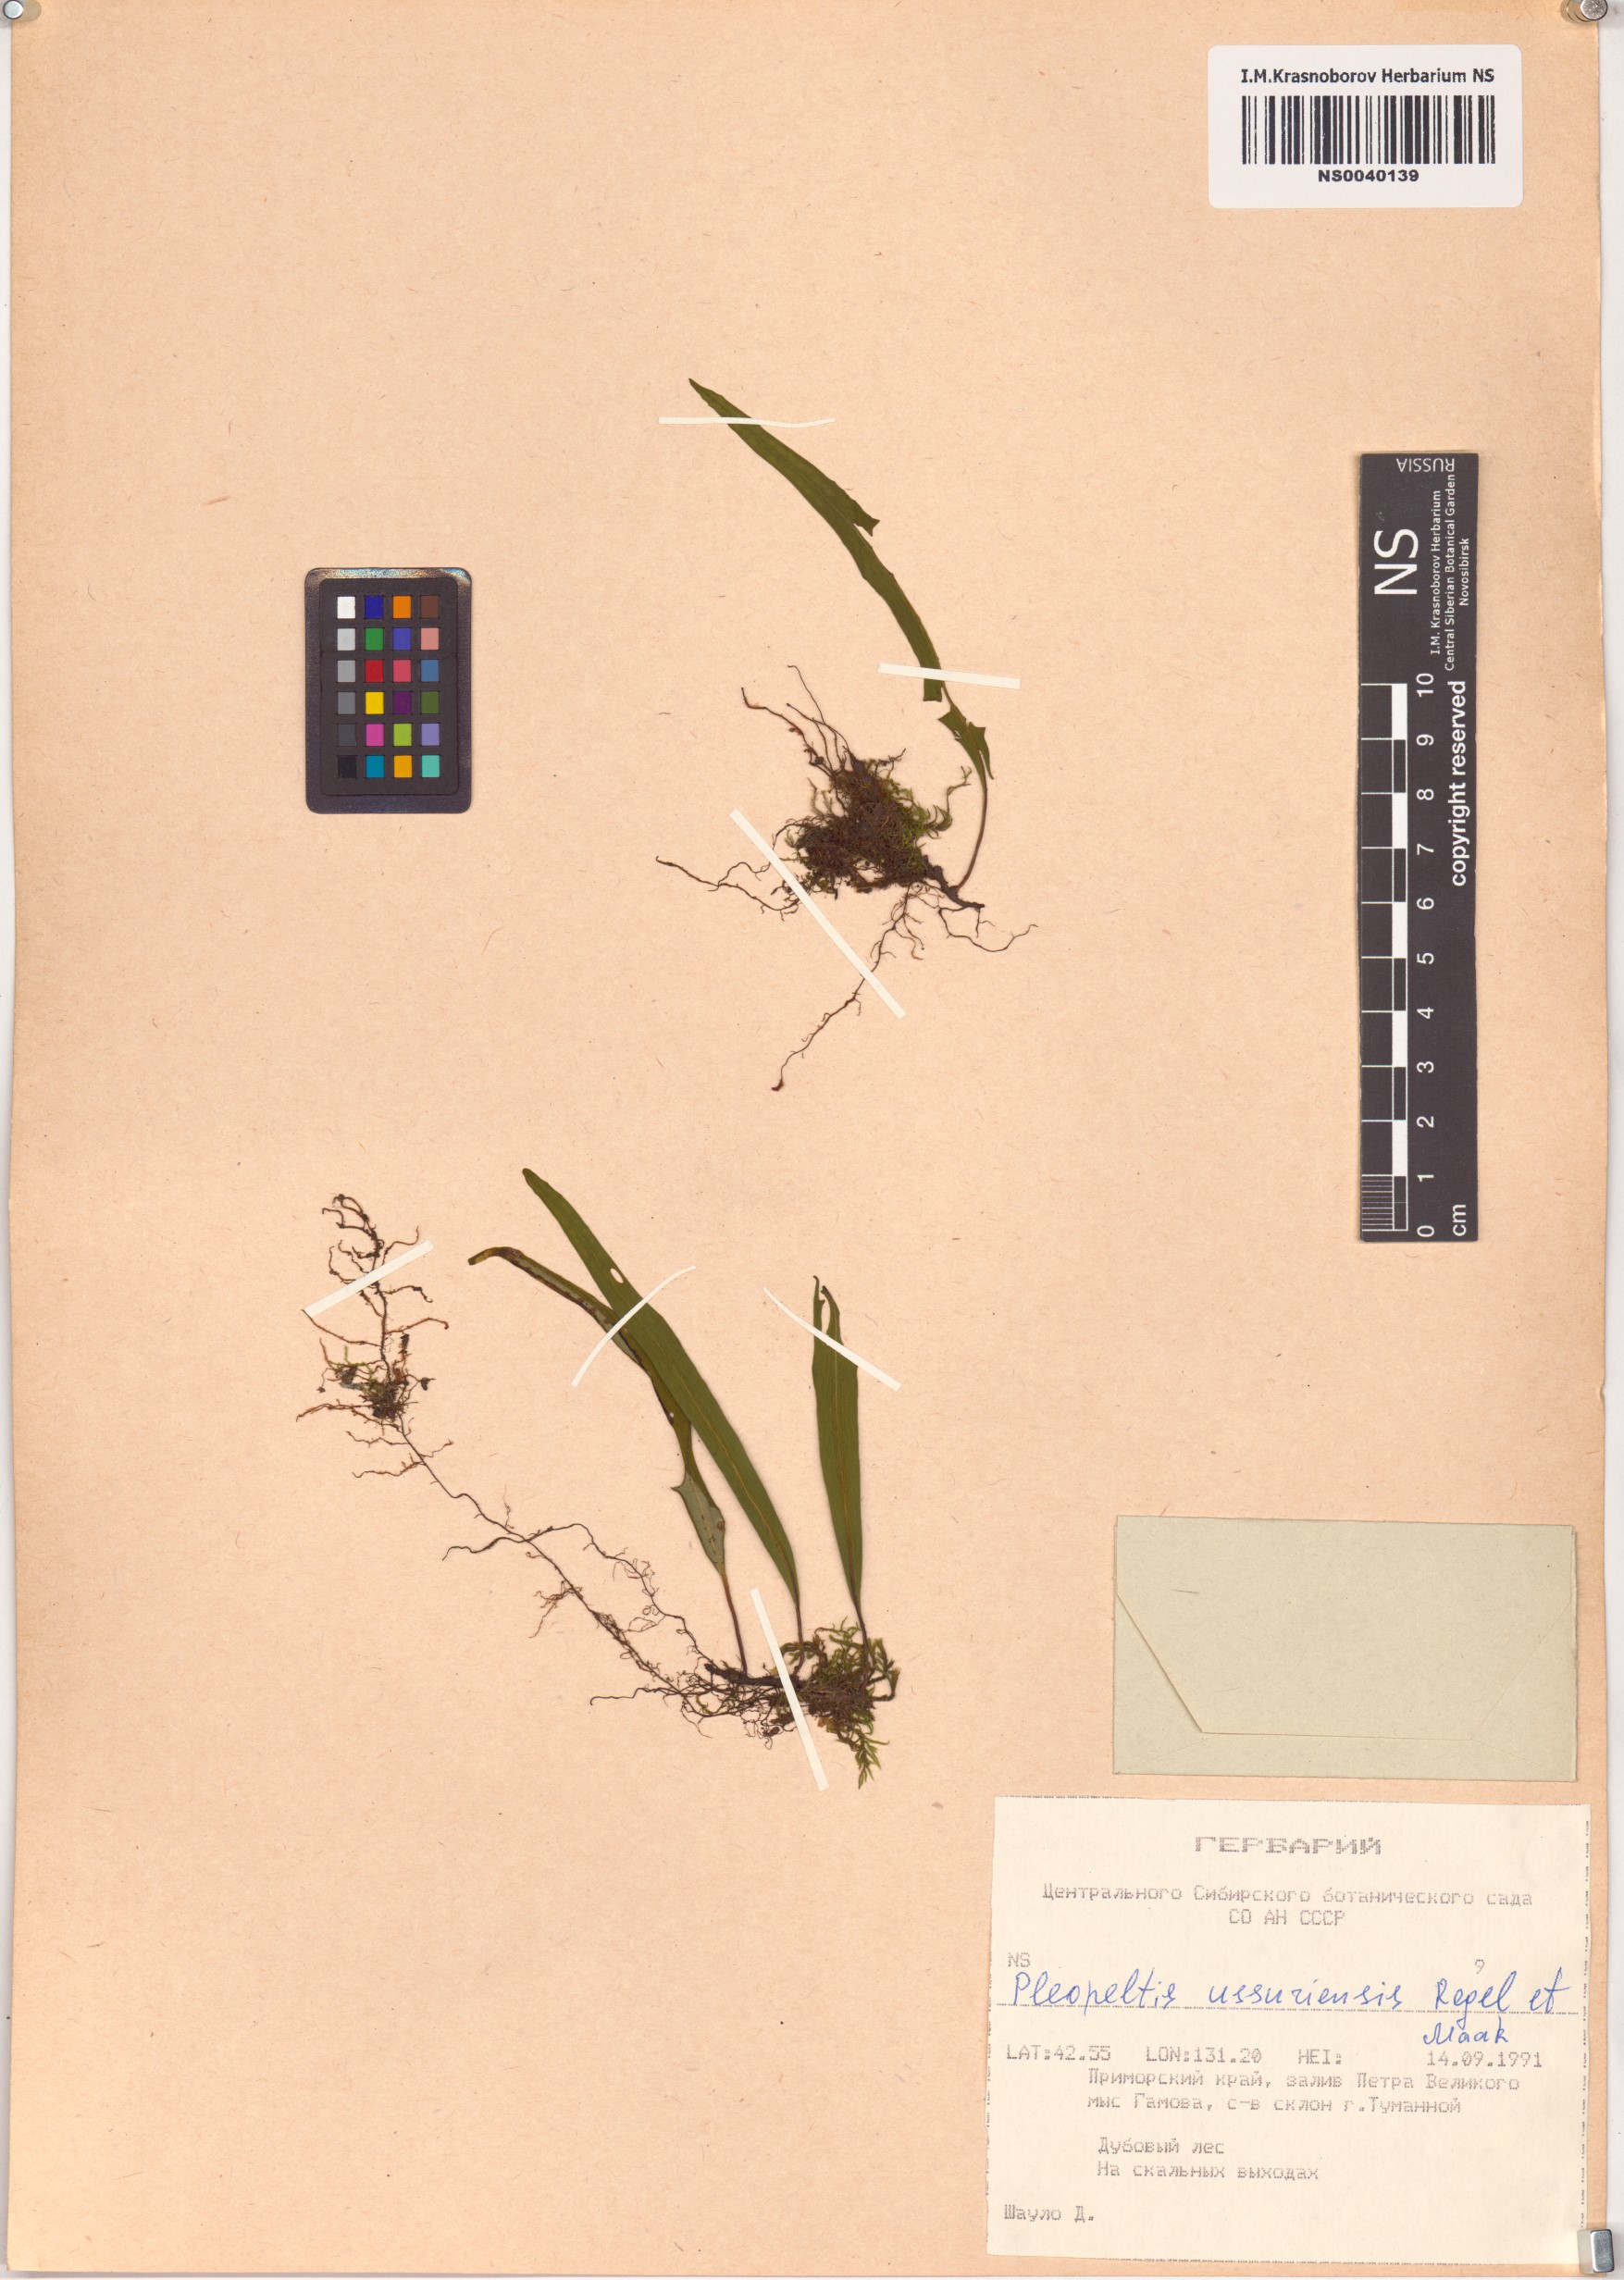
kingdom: Plantae
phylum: Tracheophyta
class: Polypodiopsida
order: Polypodiales
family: Polypodiaceae
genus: Lepisorus
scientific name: Lepisorus ussuriensis
